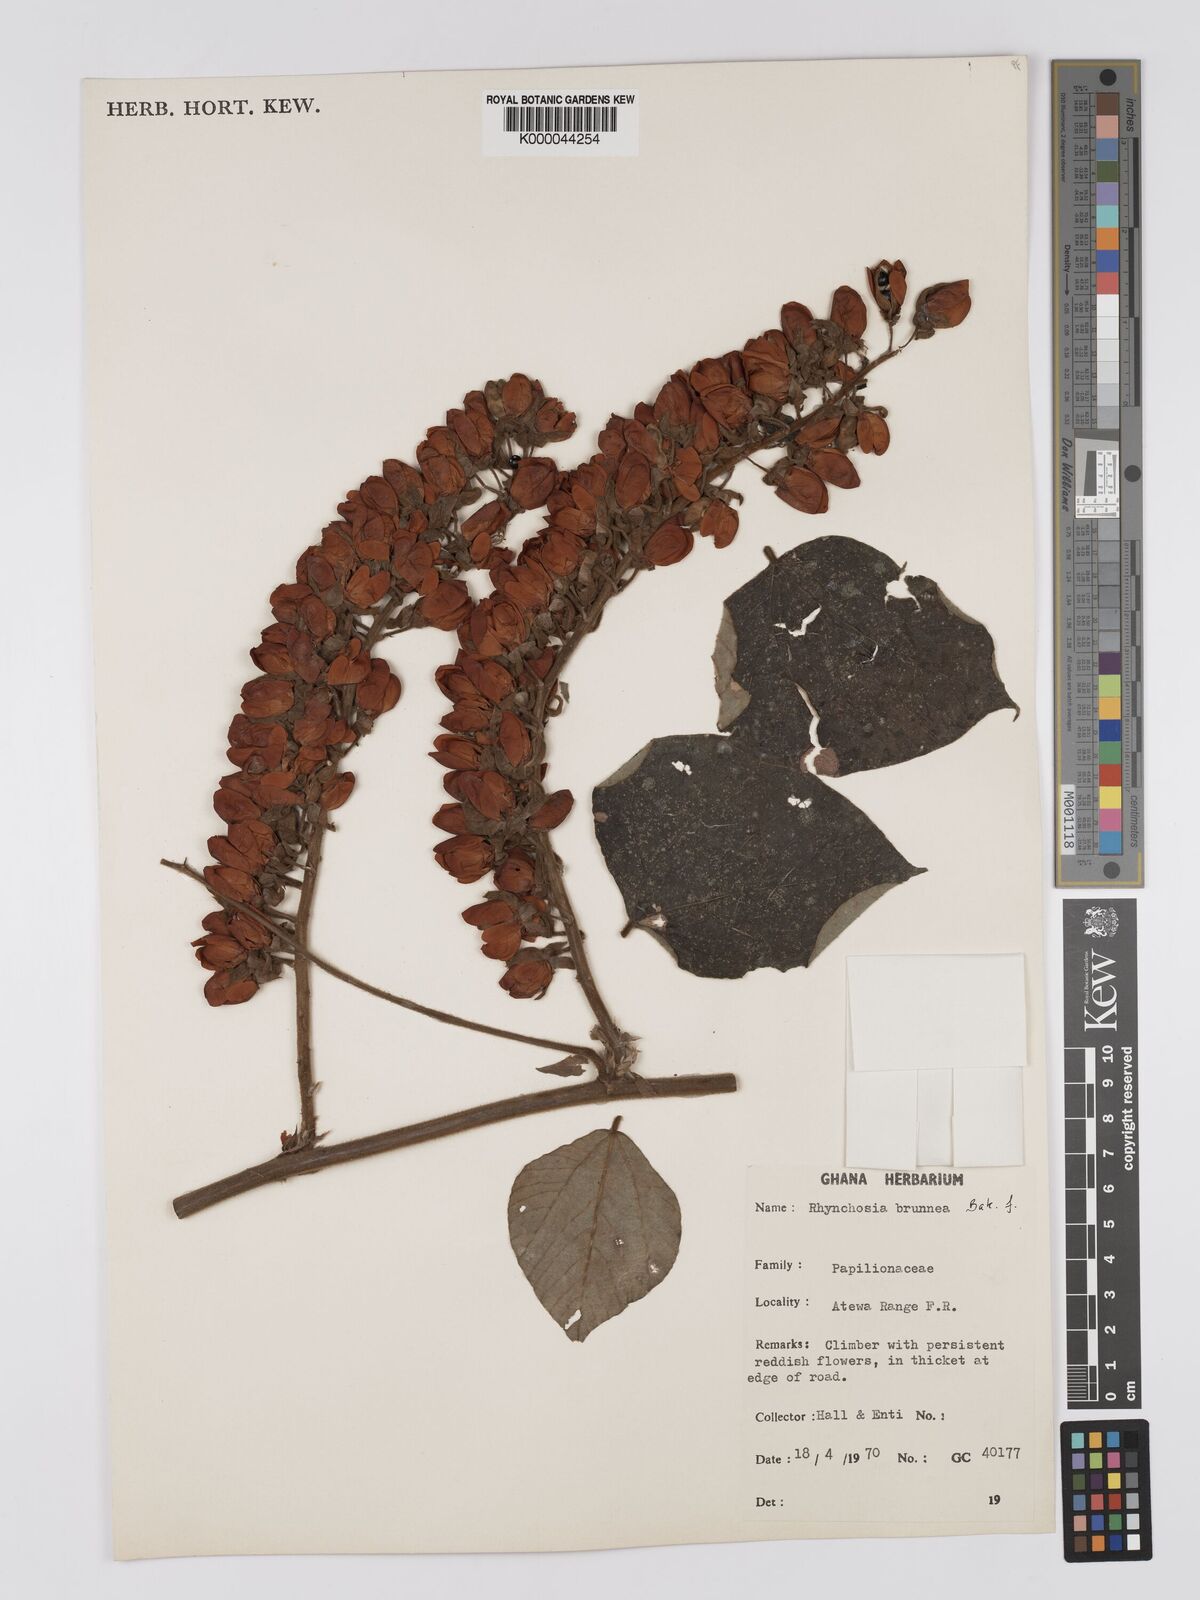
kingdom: Plantae
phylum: Tracheophyta
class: Magnoliopsida
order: Fabales
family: Fabaceae
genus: Rhynchosia
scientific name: Rhynchosia brunnea
